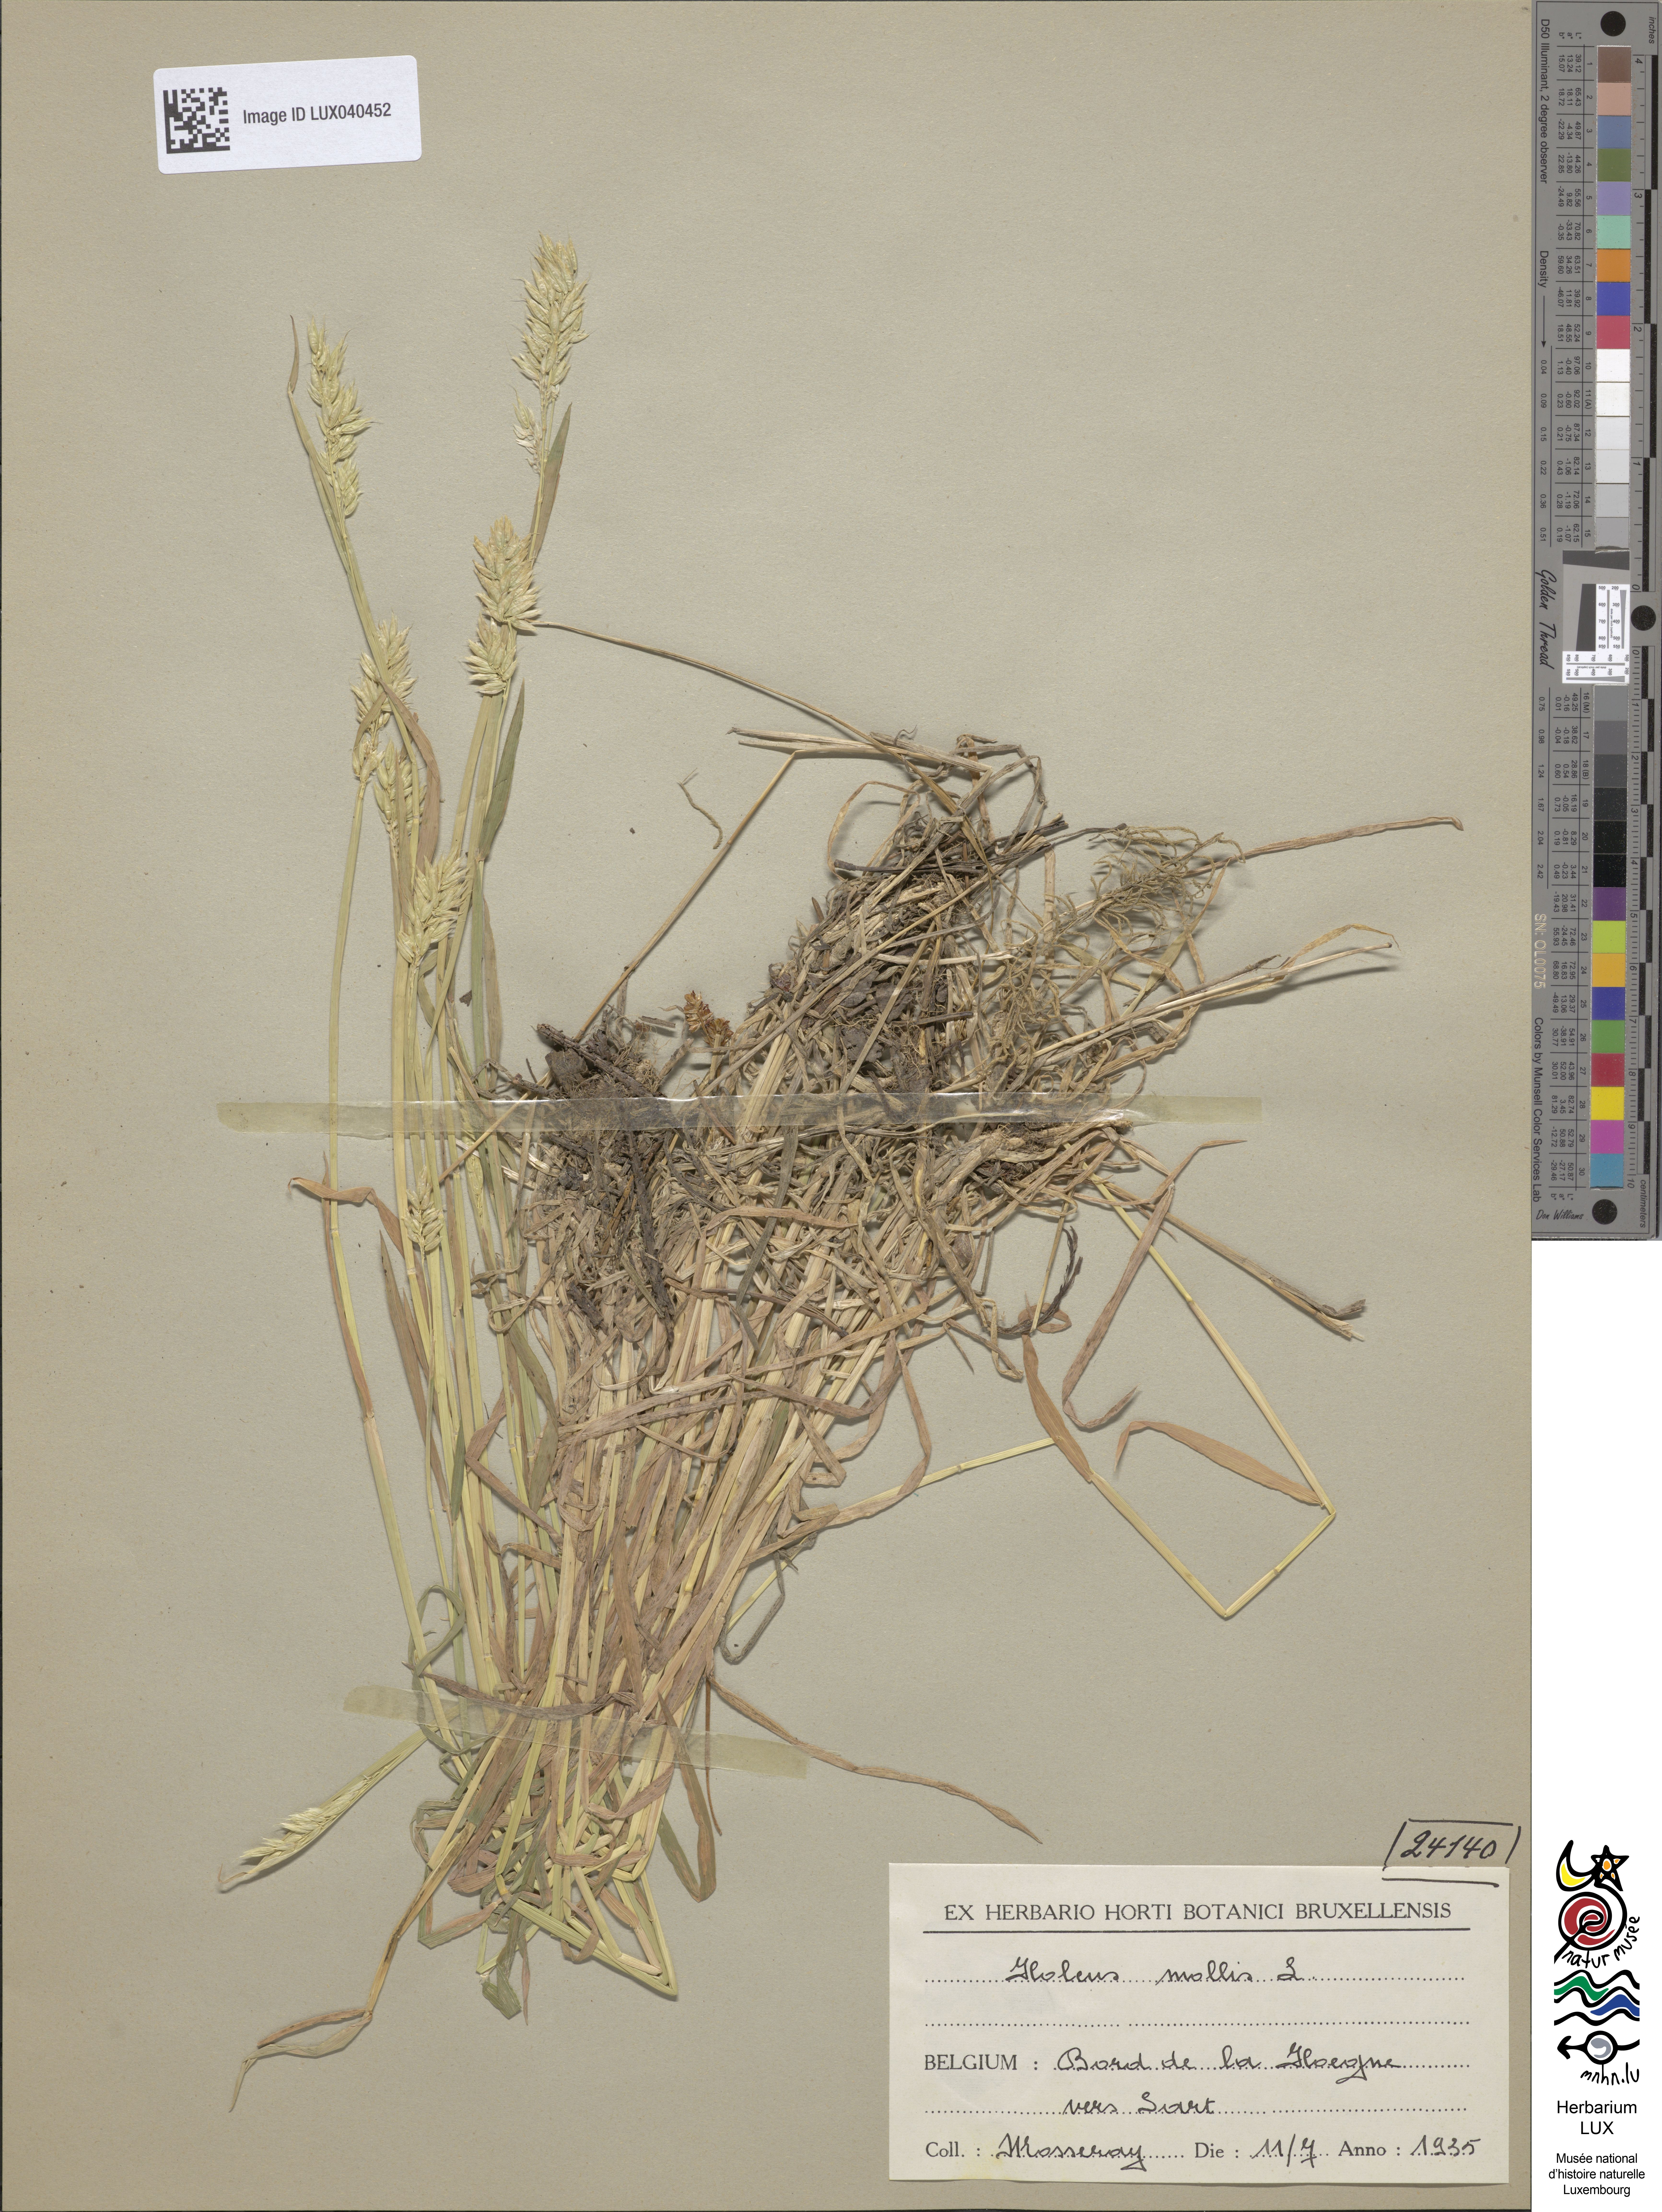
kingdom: Plantae
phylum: Tracheophyta
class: Liliopsida
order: Poales
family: Poaceae
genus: Holcus
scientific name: Holcus mollis
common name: Creeping velvetgrass
